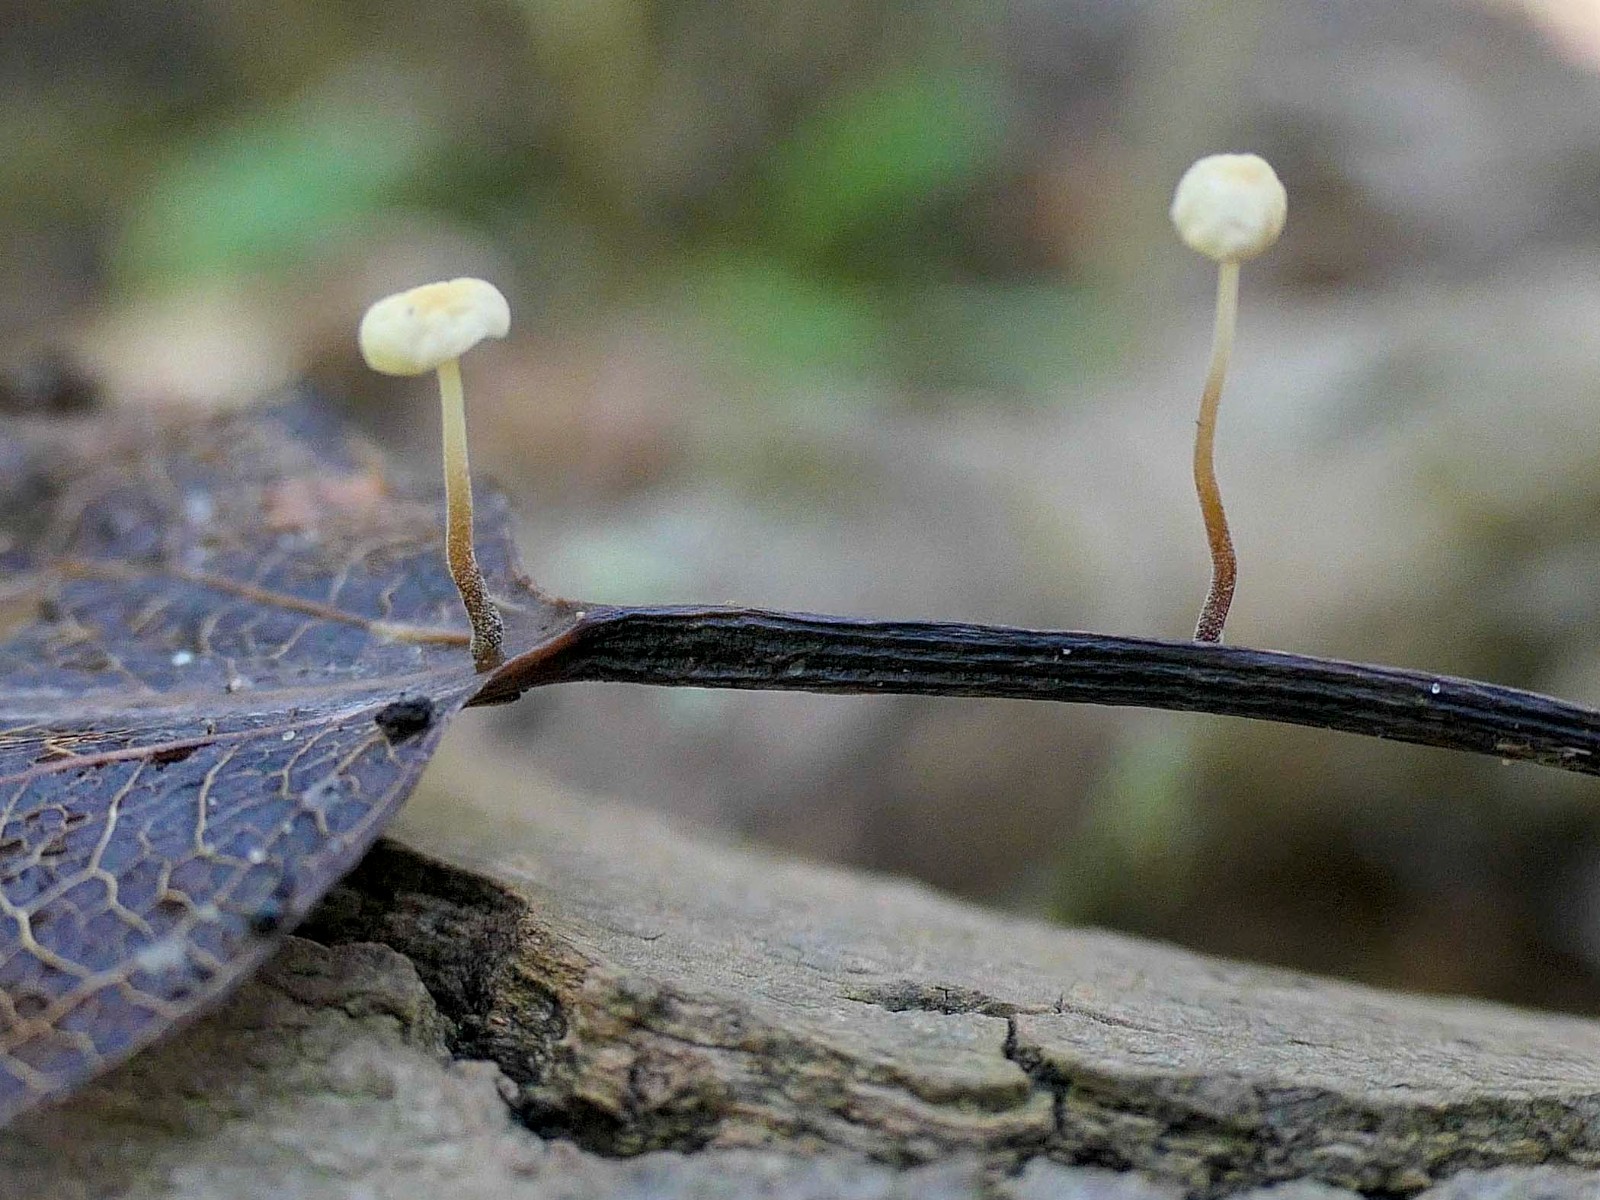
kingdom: Fungi
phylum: Basidiomycota
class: Agaricomycetes
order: Agaricales
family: Marasmiaceae
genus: Marasmius
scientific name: Marasmius epiphyllus
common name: blad-bruskhat
